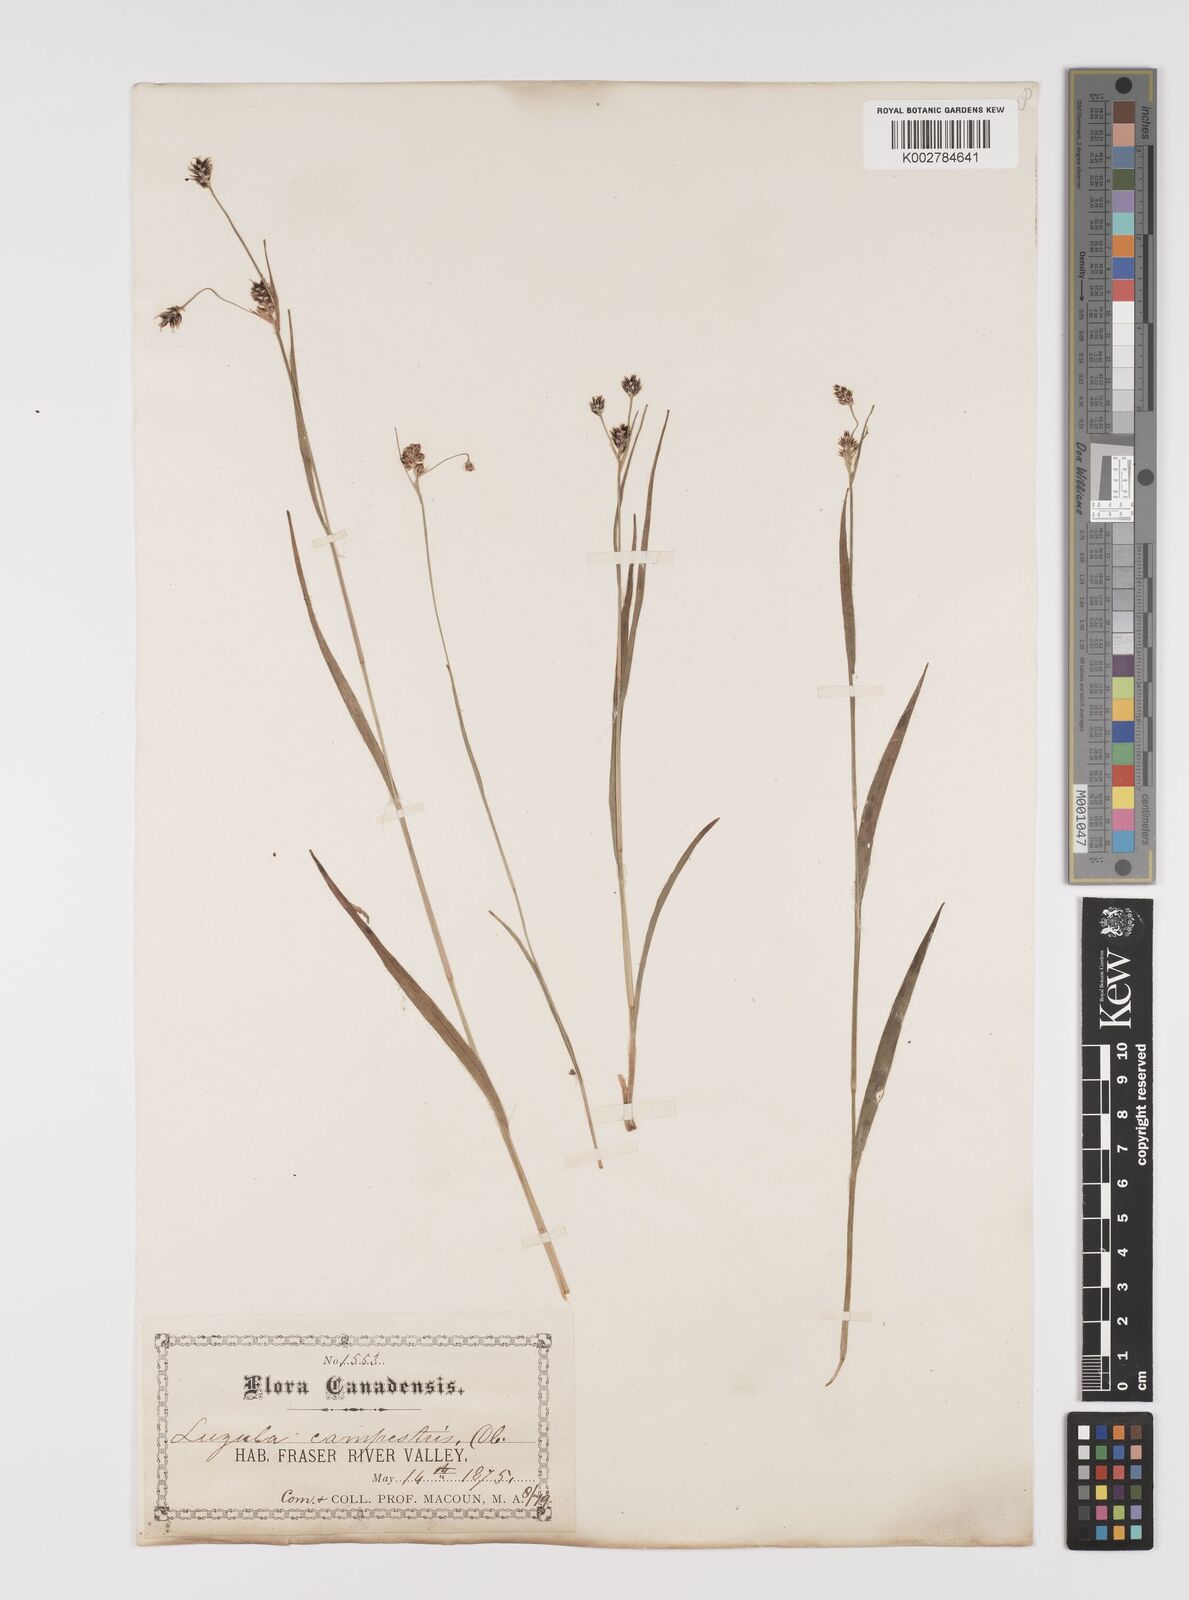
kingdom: Plantae
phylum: Tracheophyta
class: Liliopsida
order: Poales
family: Juncaceae
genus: Luzula
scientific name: Luzula campestris
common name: Field wood-rush
